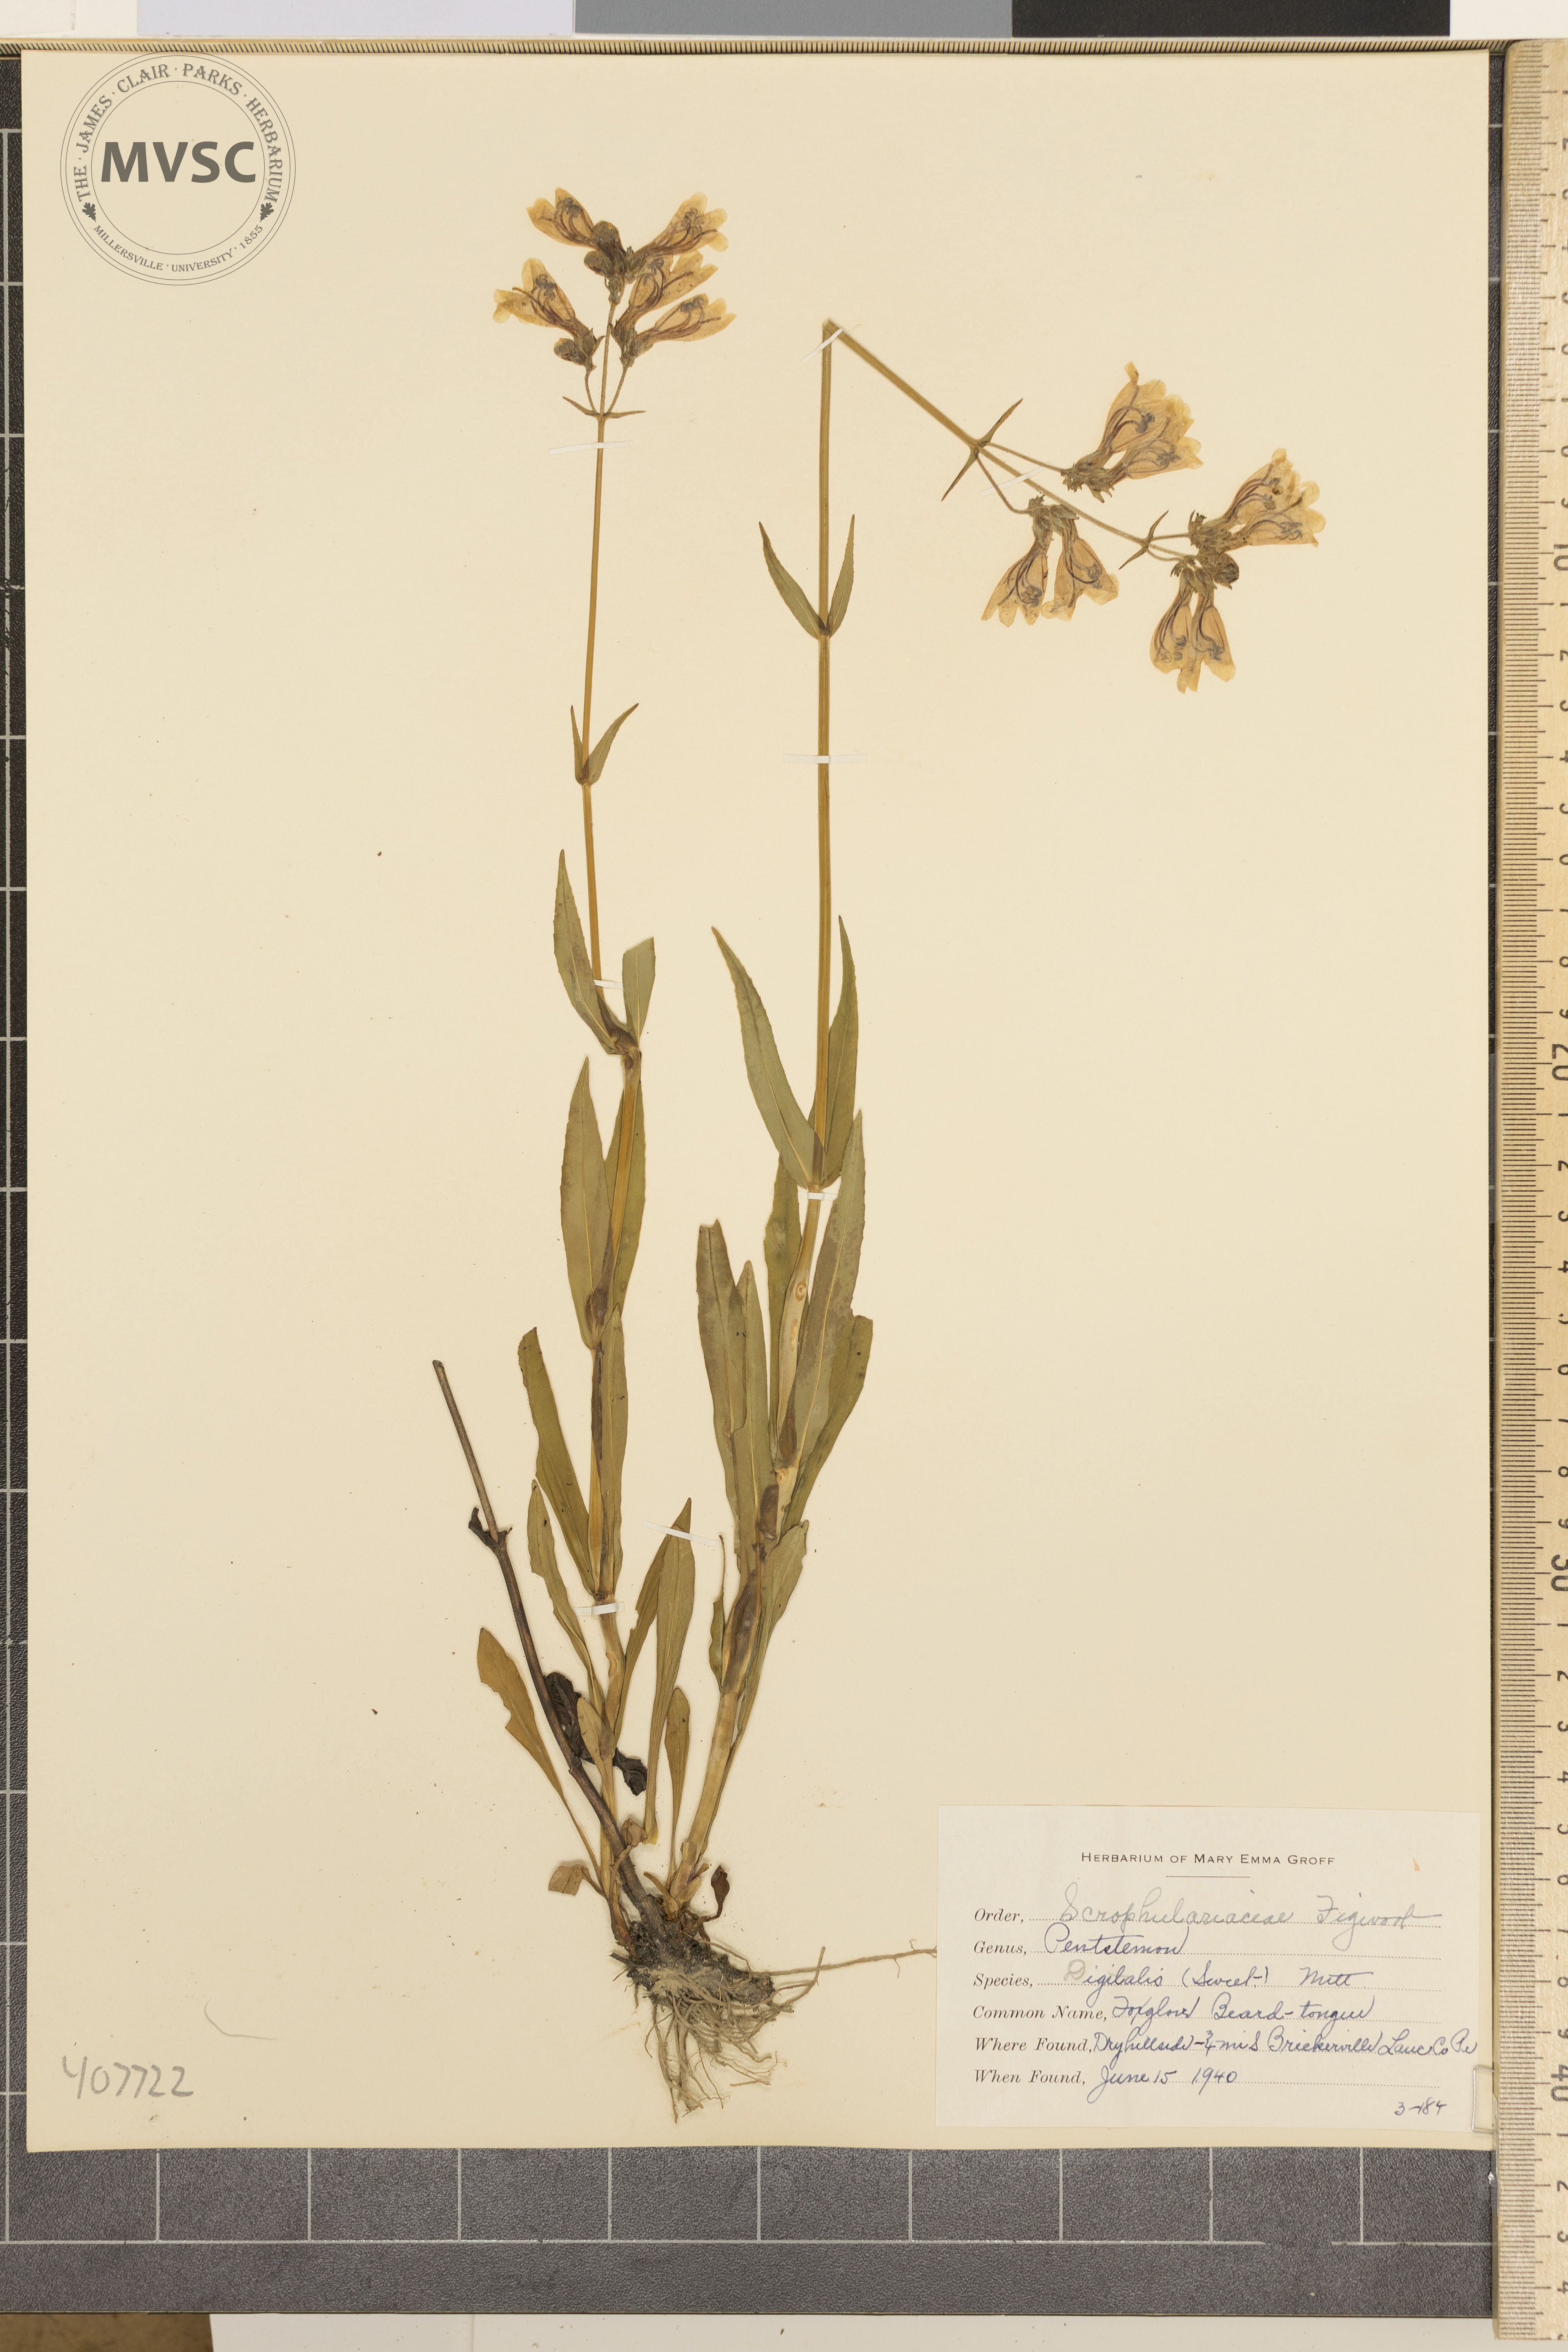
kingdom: Plantae
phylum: Tracheophyta
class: Magnoliopsida
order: Lamiales
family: Plantaginaceae
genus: Penstemon
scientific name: Penstemon digitalis
